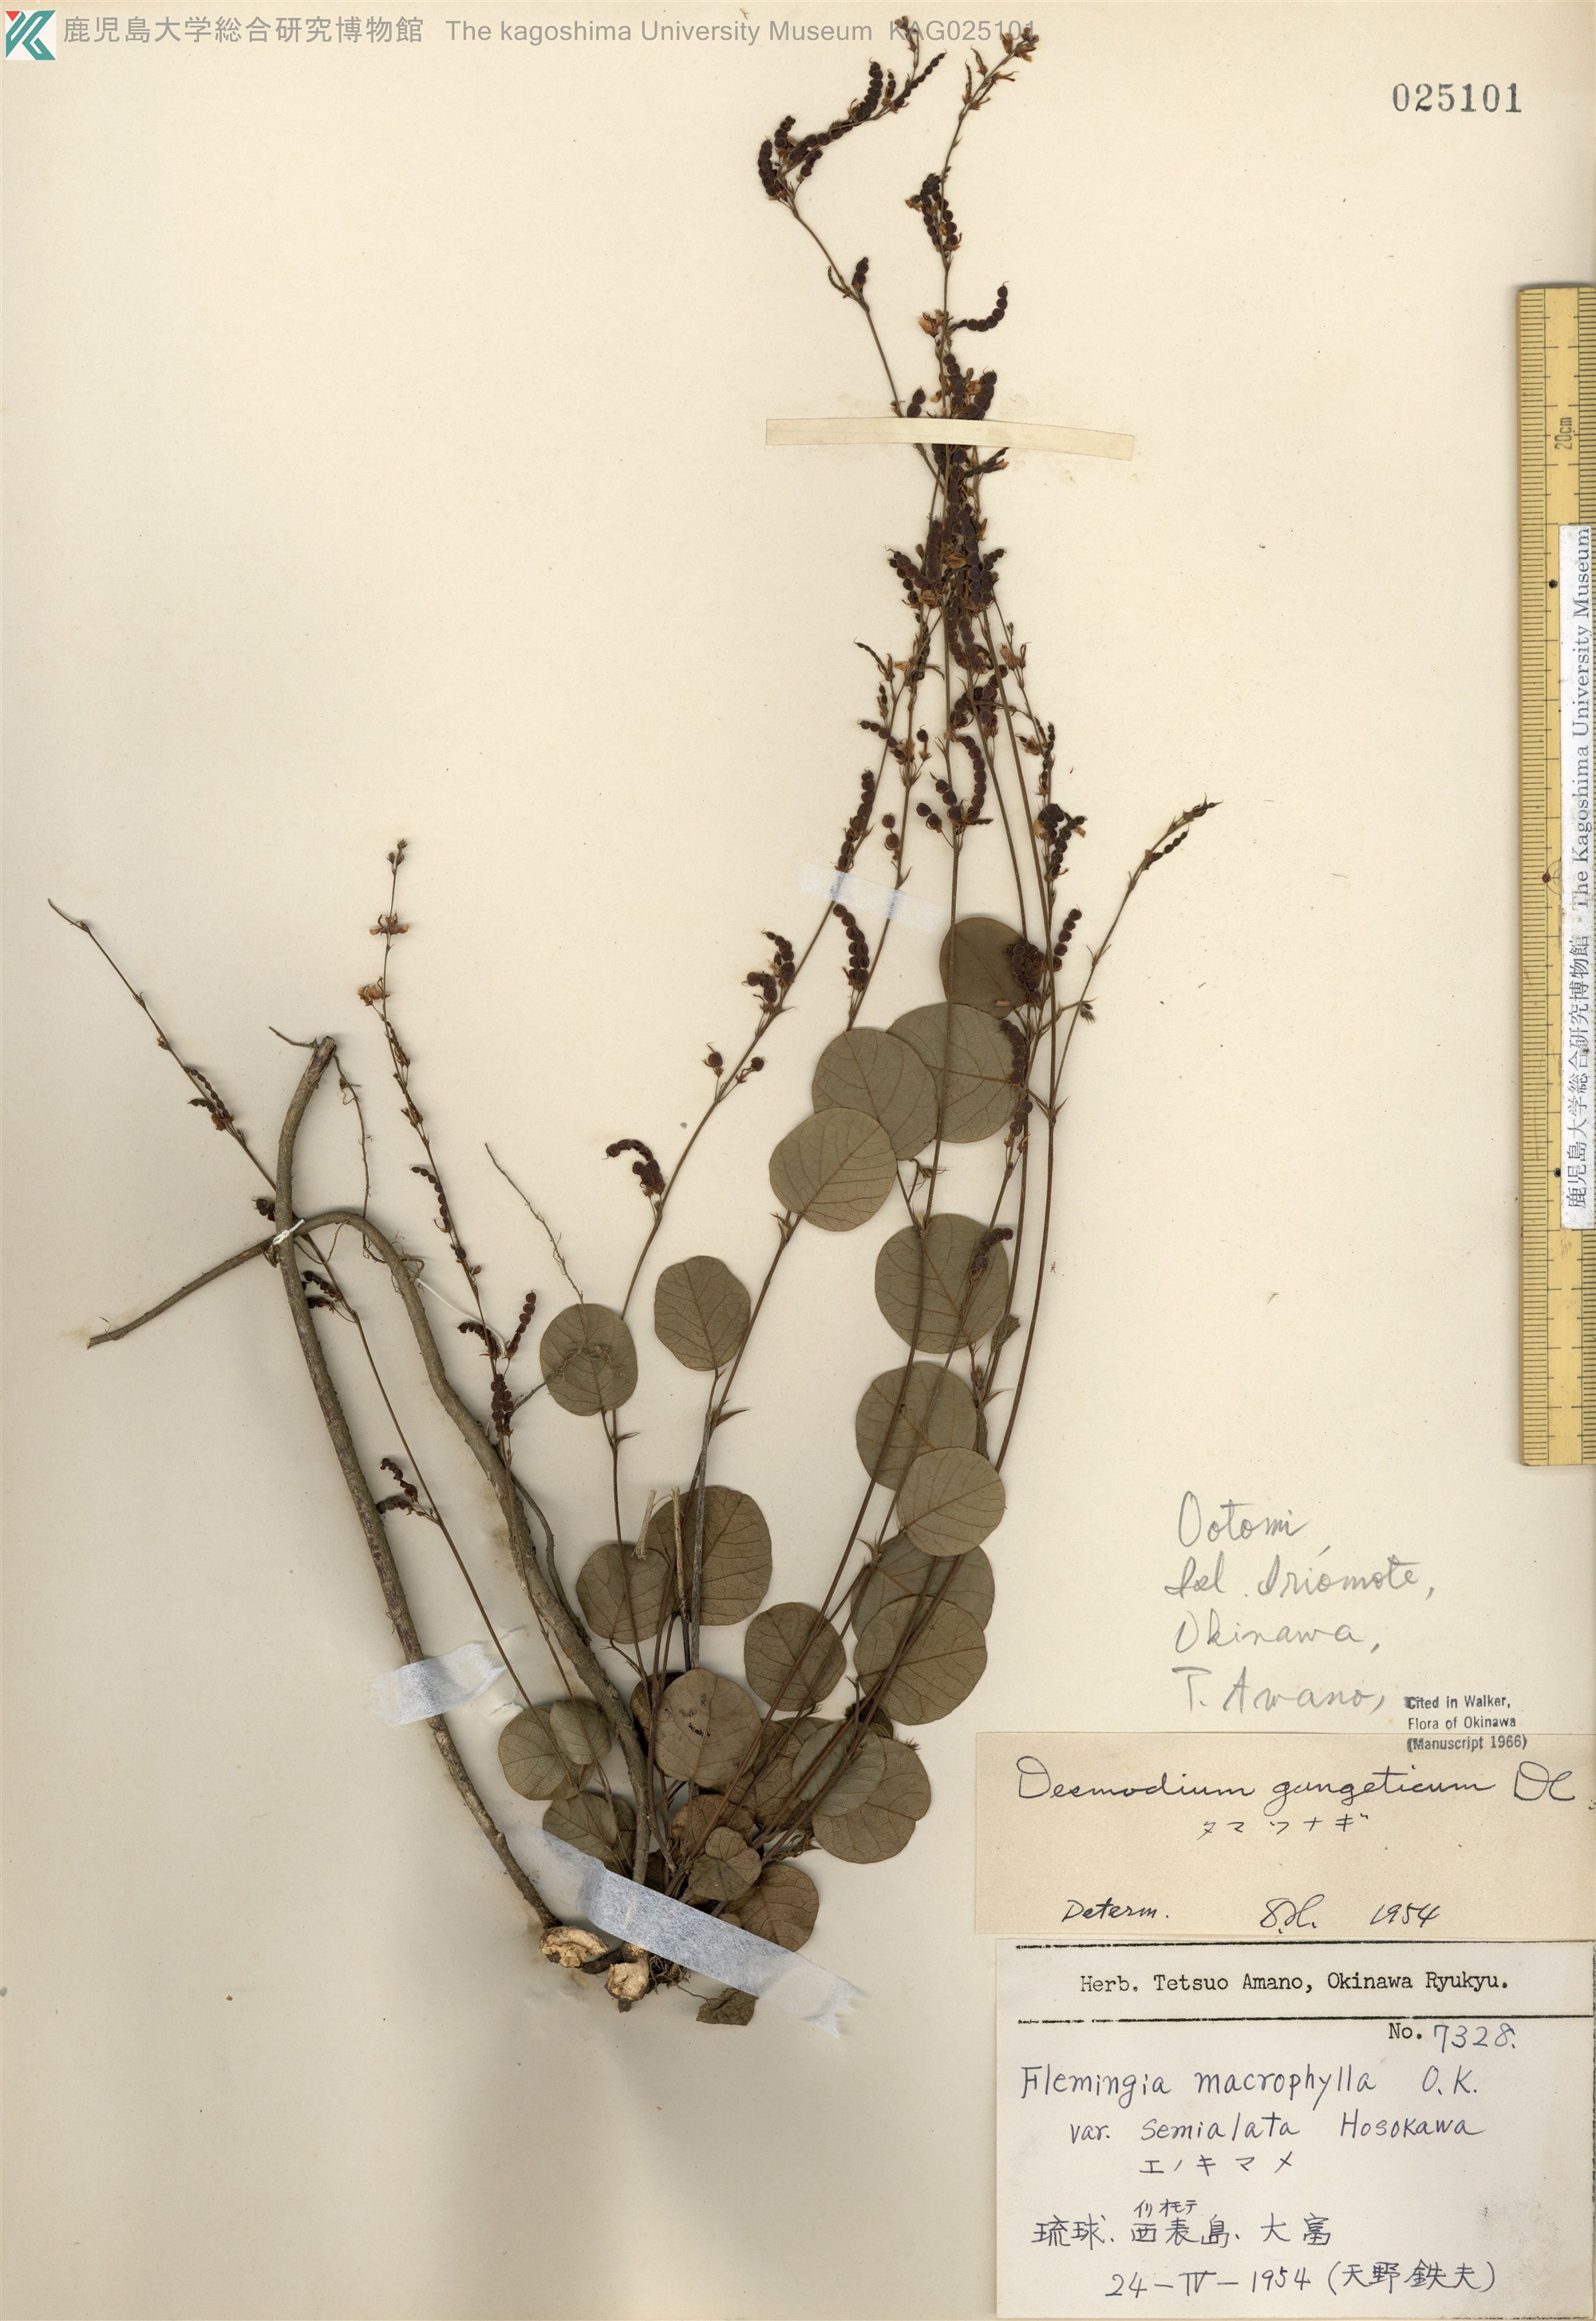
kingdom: Plantae
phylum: Tracheophyta
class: Magnoliopsida
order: Fabales
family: Fabaceae
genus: Pleurolobus
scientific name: Pleurolobus gangeticus
